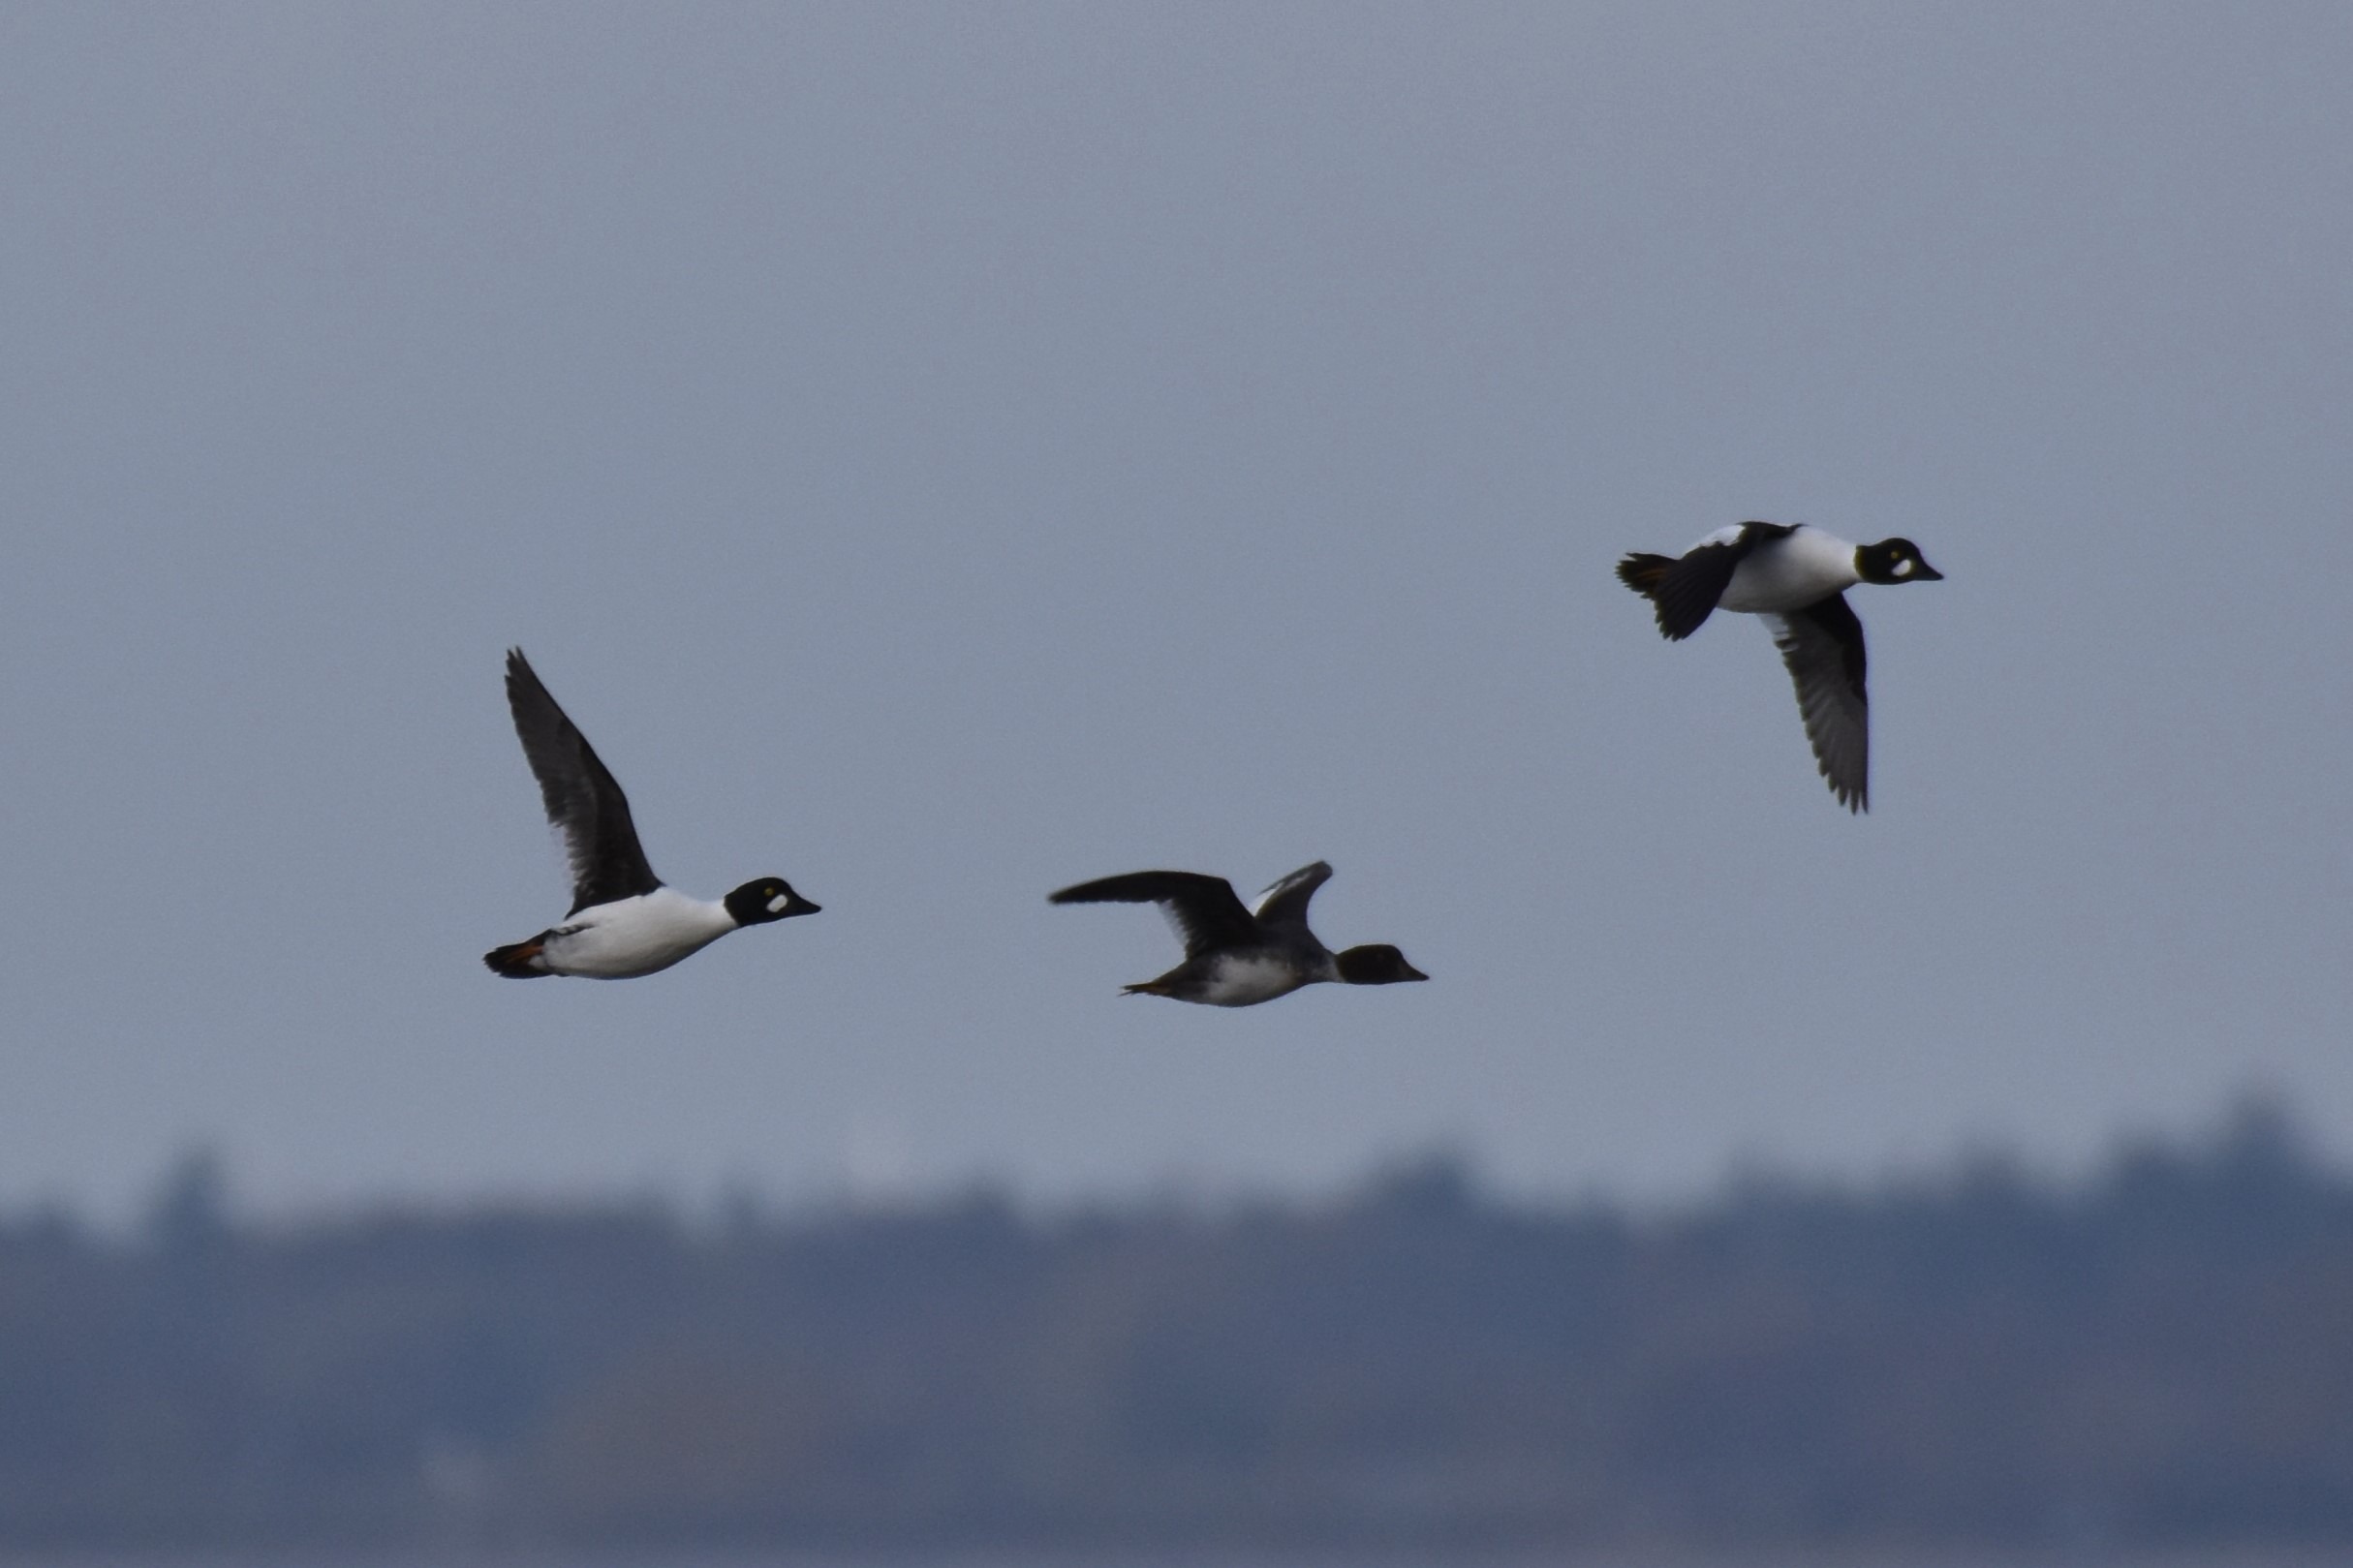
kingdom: Animalia
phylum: Chordata
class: Aves
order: Anseriformes
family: Anatidae
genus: Bucephala
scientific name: Bucephala clangula
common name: Hvinand
